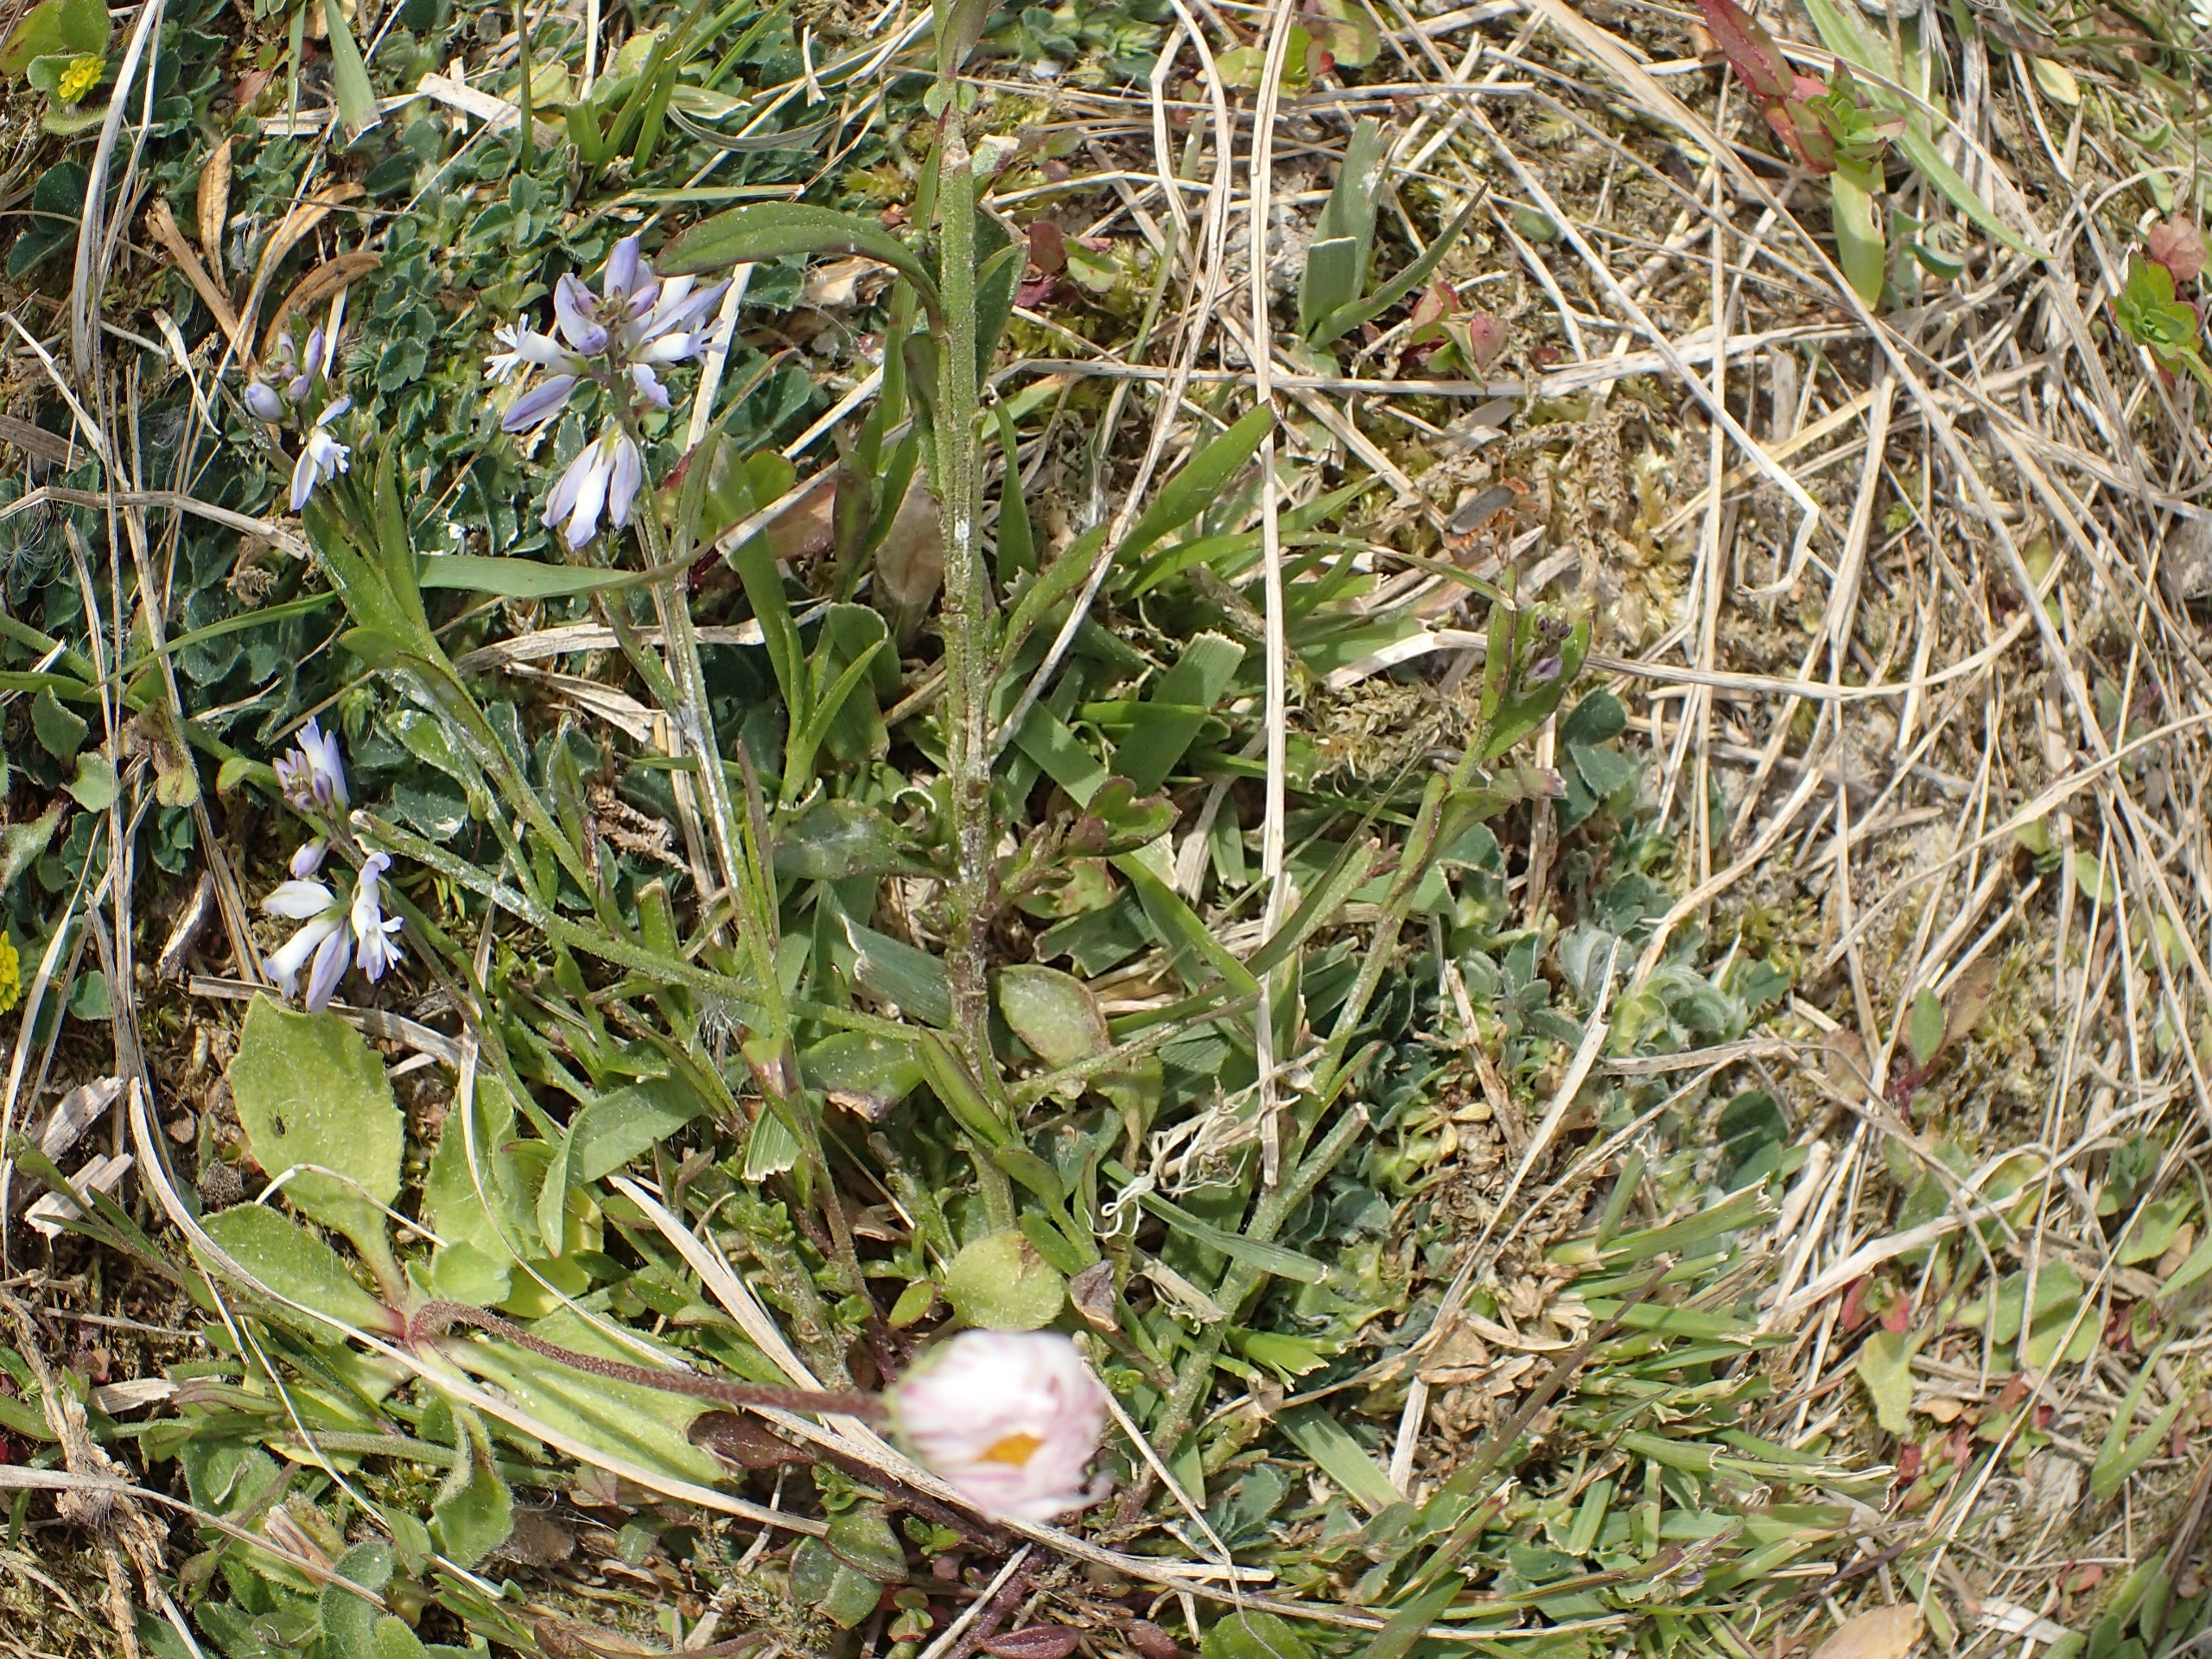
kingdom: Plantae
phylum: Tracheophyta
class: Magnoliopsida
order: Fabales
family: Polygalaceae
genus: Polygala
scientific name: Polygala vulgaris
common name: Almindelig mælkeurt
